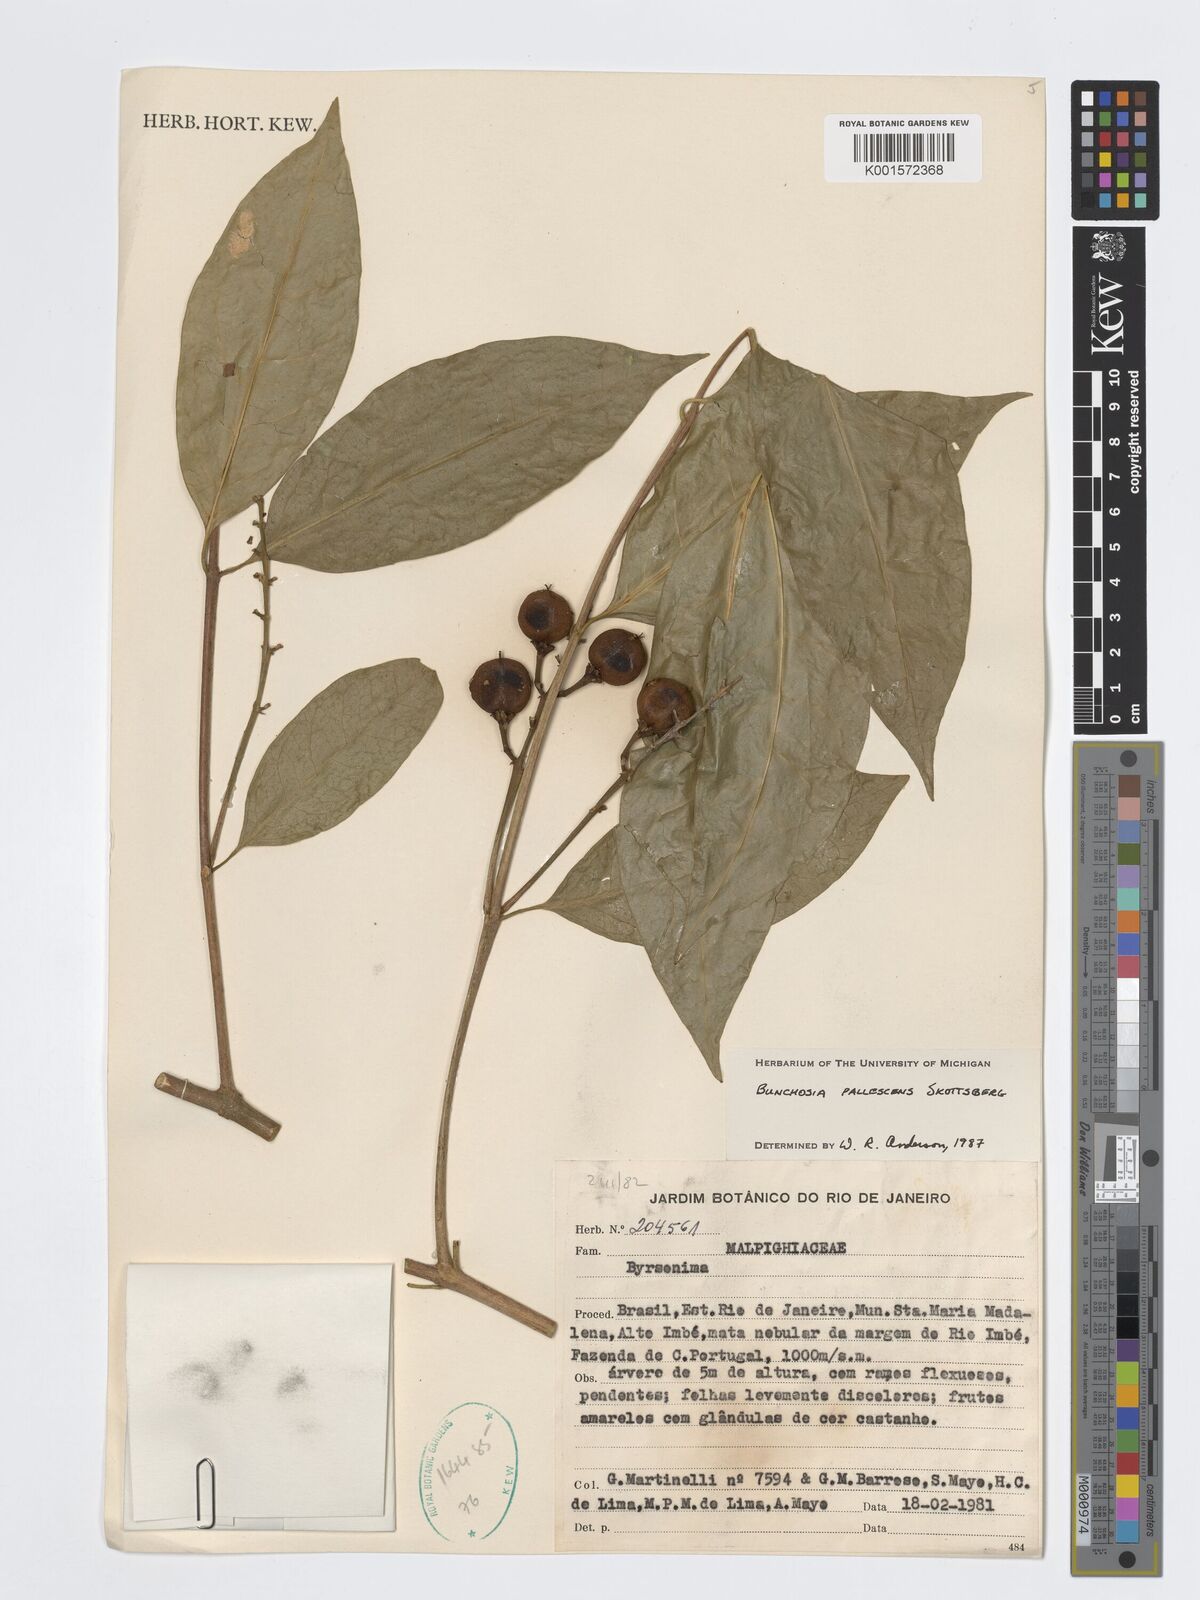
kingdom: Plantae
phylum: Tracheophyta
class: Magnoliopsida
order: Malpighiales
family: Malpighiaceae
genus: Bunchosia
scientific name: Bunchosia pallescens
